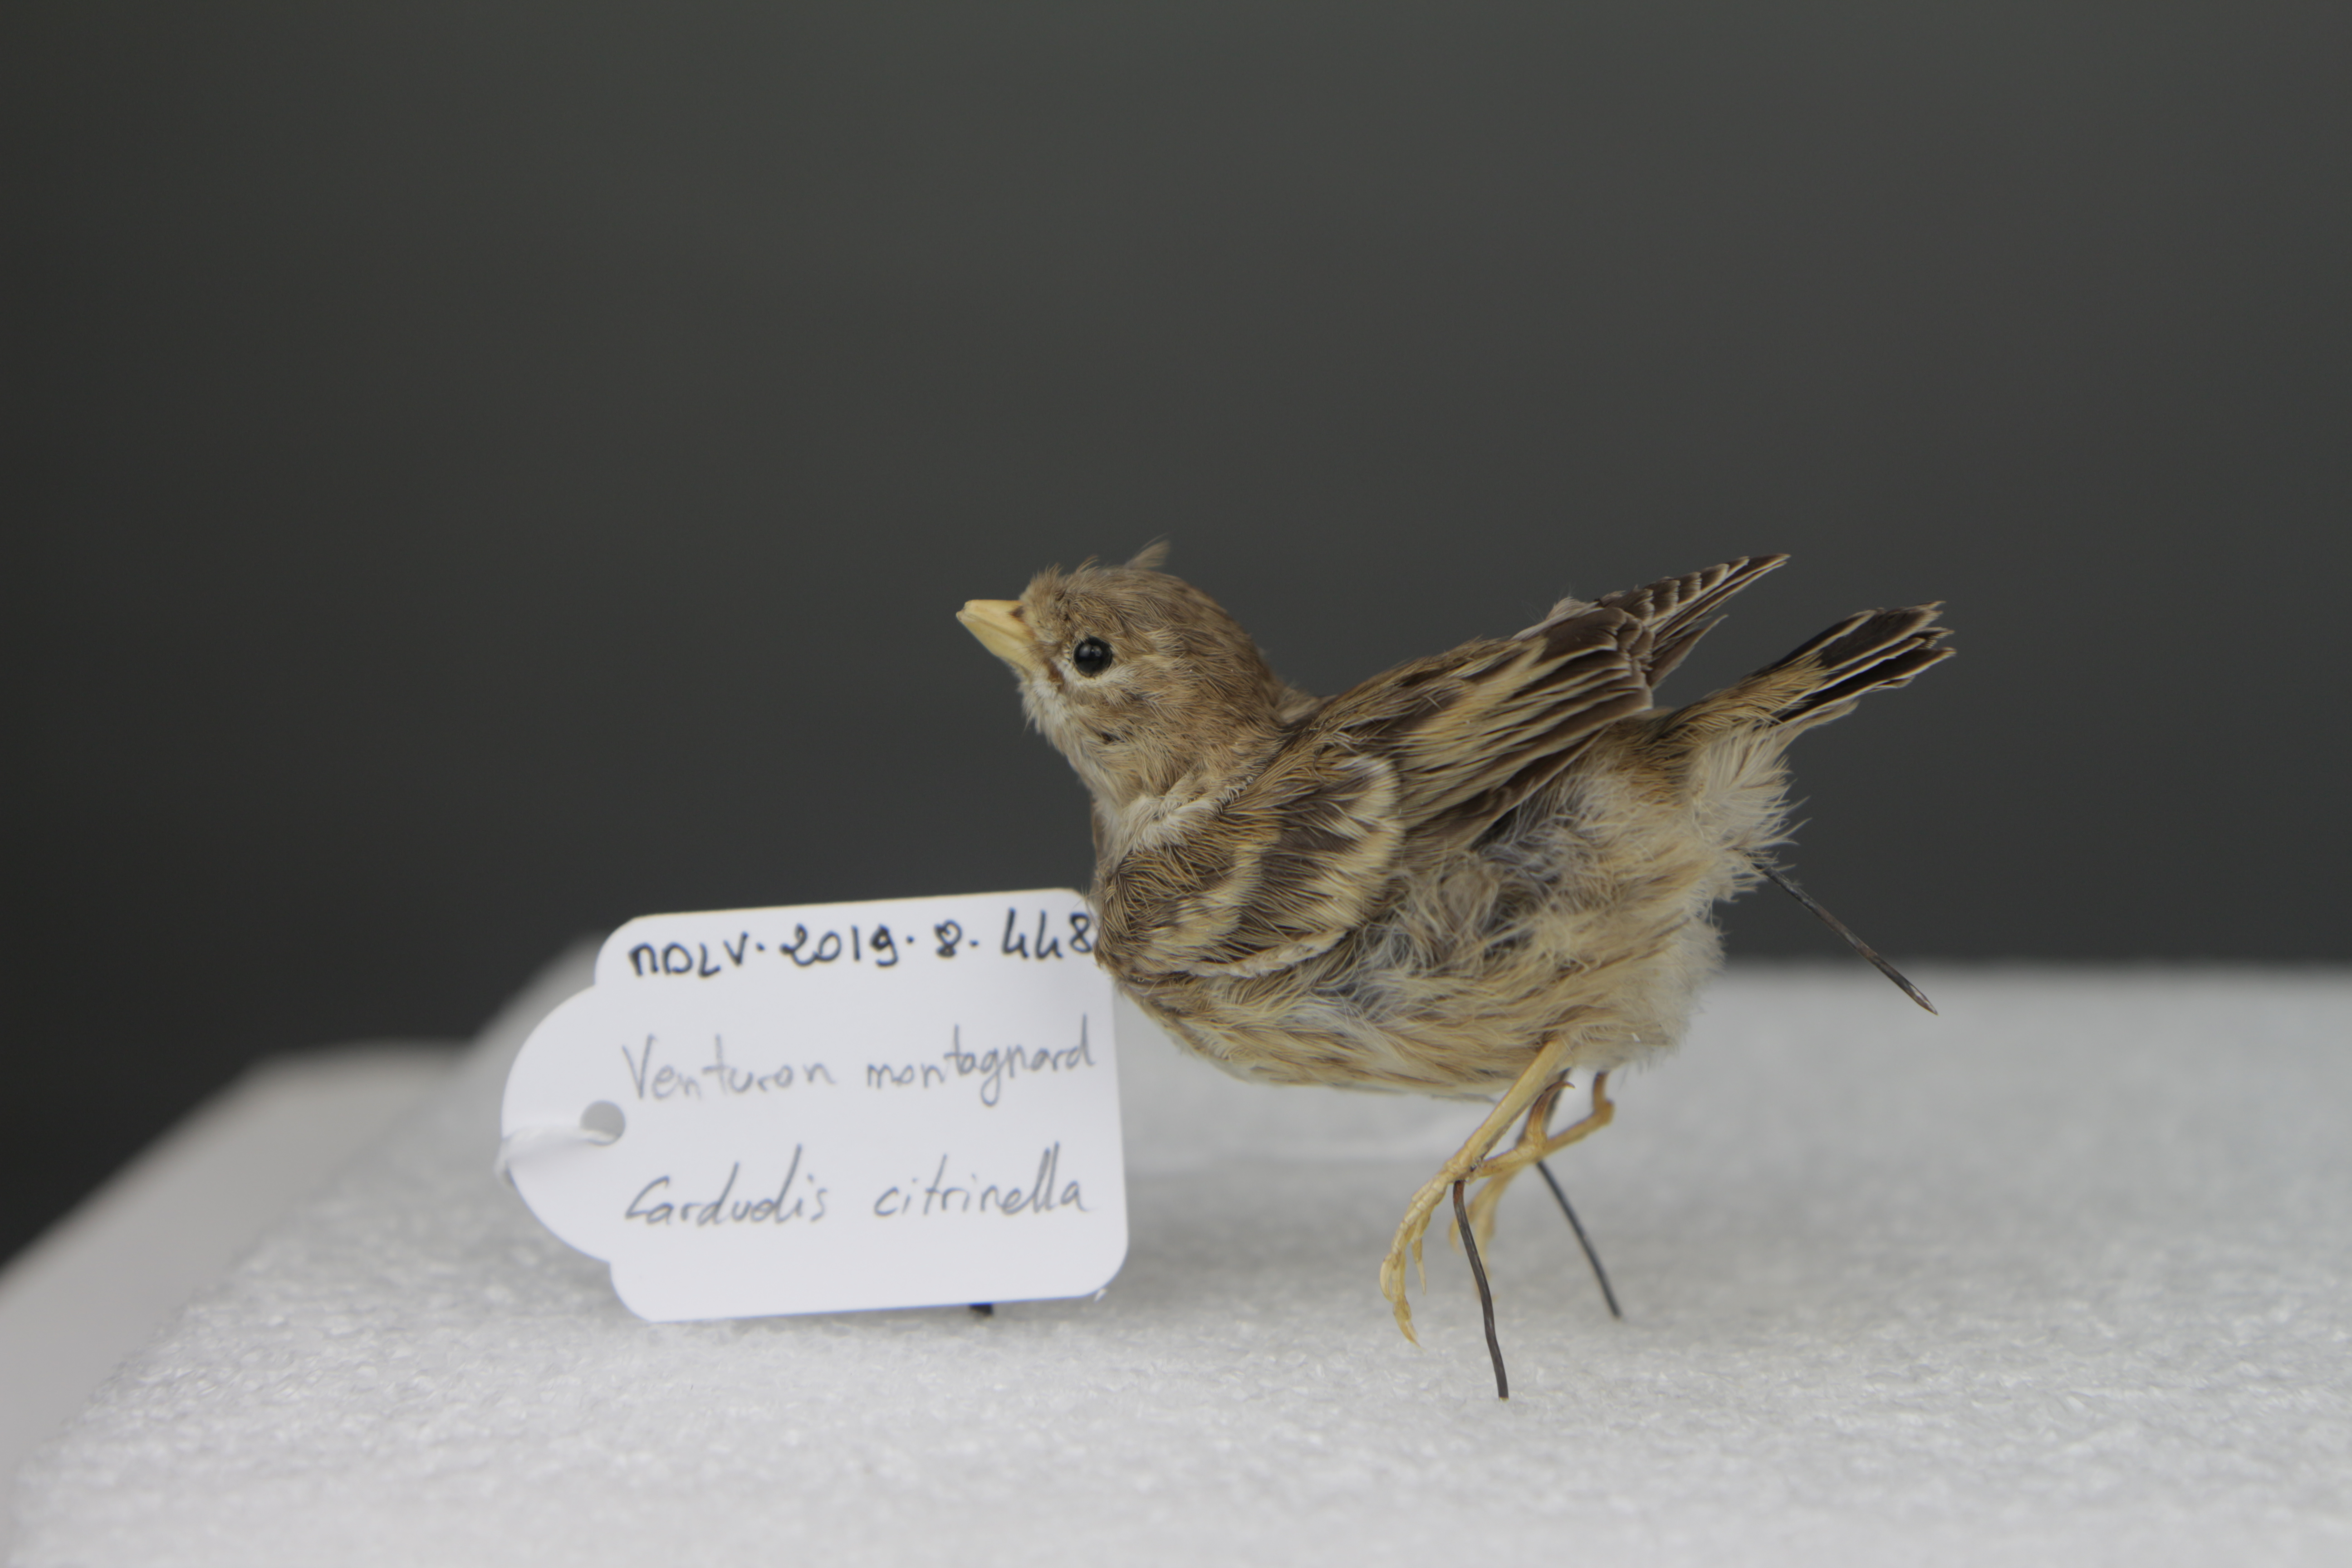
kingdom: Animalia
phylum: Chordata
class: Aves
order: Passeriformes
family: Fringillidae
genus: Carduelis
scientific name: Carduelis citrinella
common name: Citril finch
